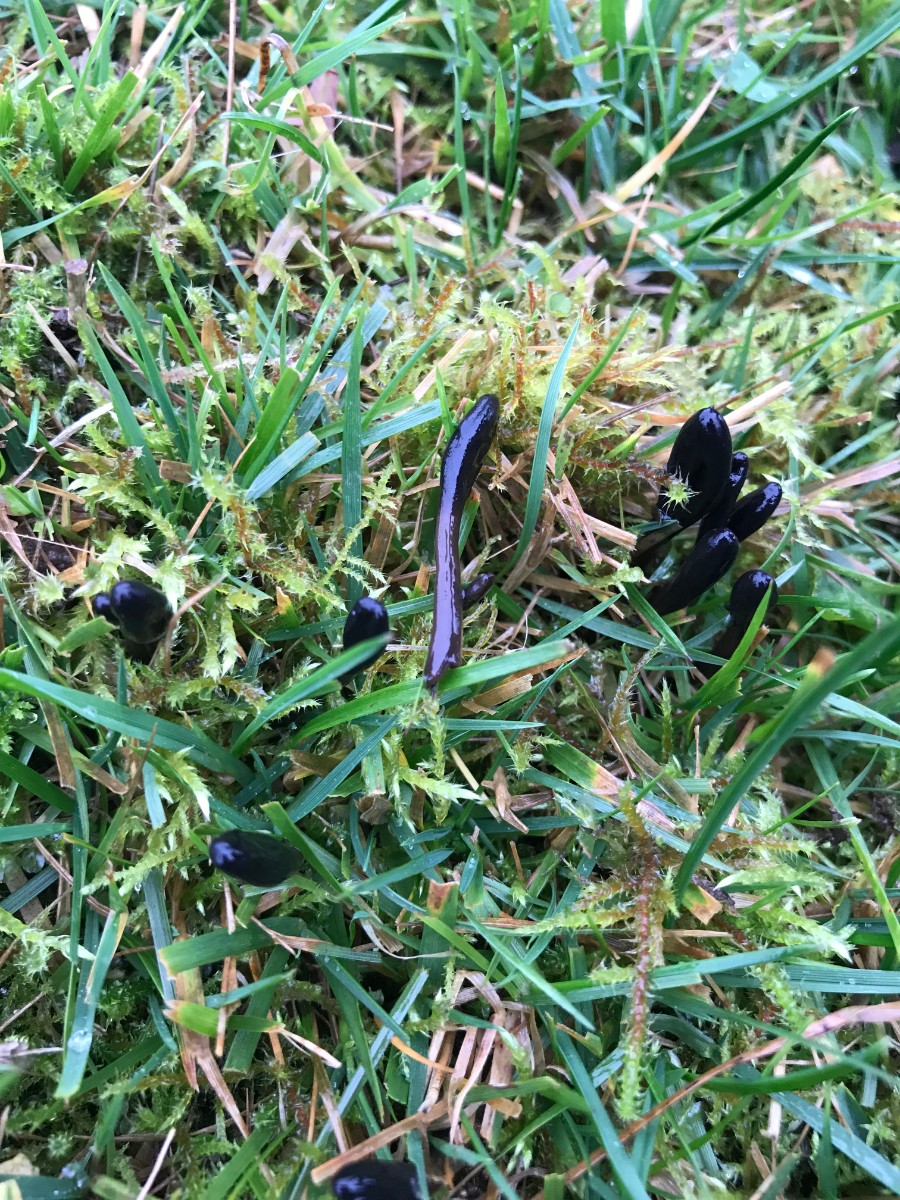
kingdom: Fungi
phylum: Ascomycota
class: Geoglossomycetes
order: Geoglossales
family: Geoglossaceae
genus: Glutinoglossum
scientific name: Glutinoglossum glutinosum
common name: slimet jordtunge
